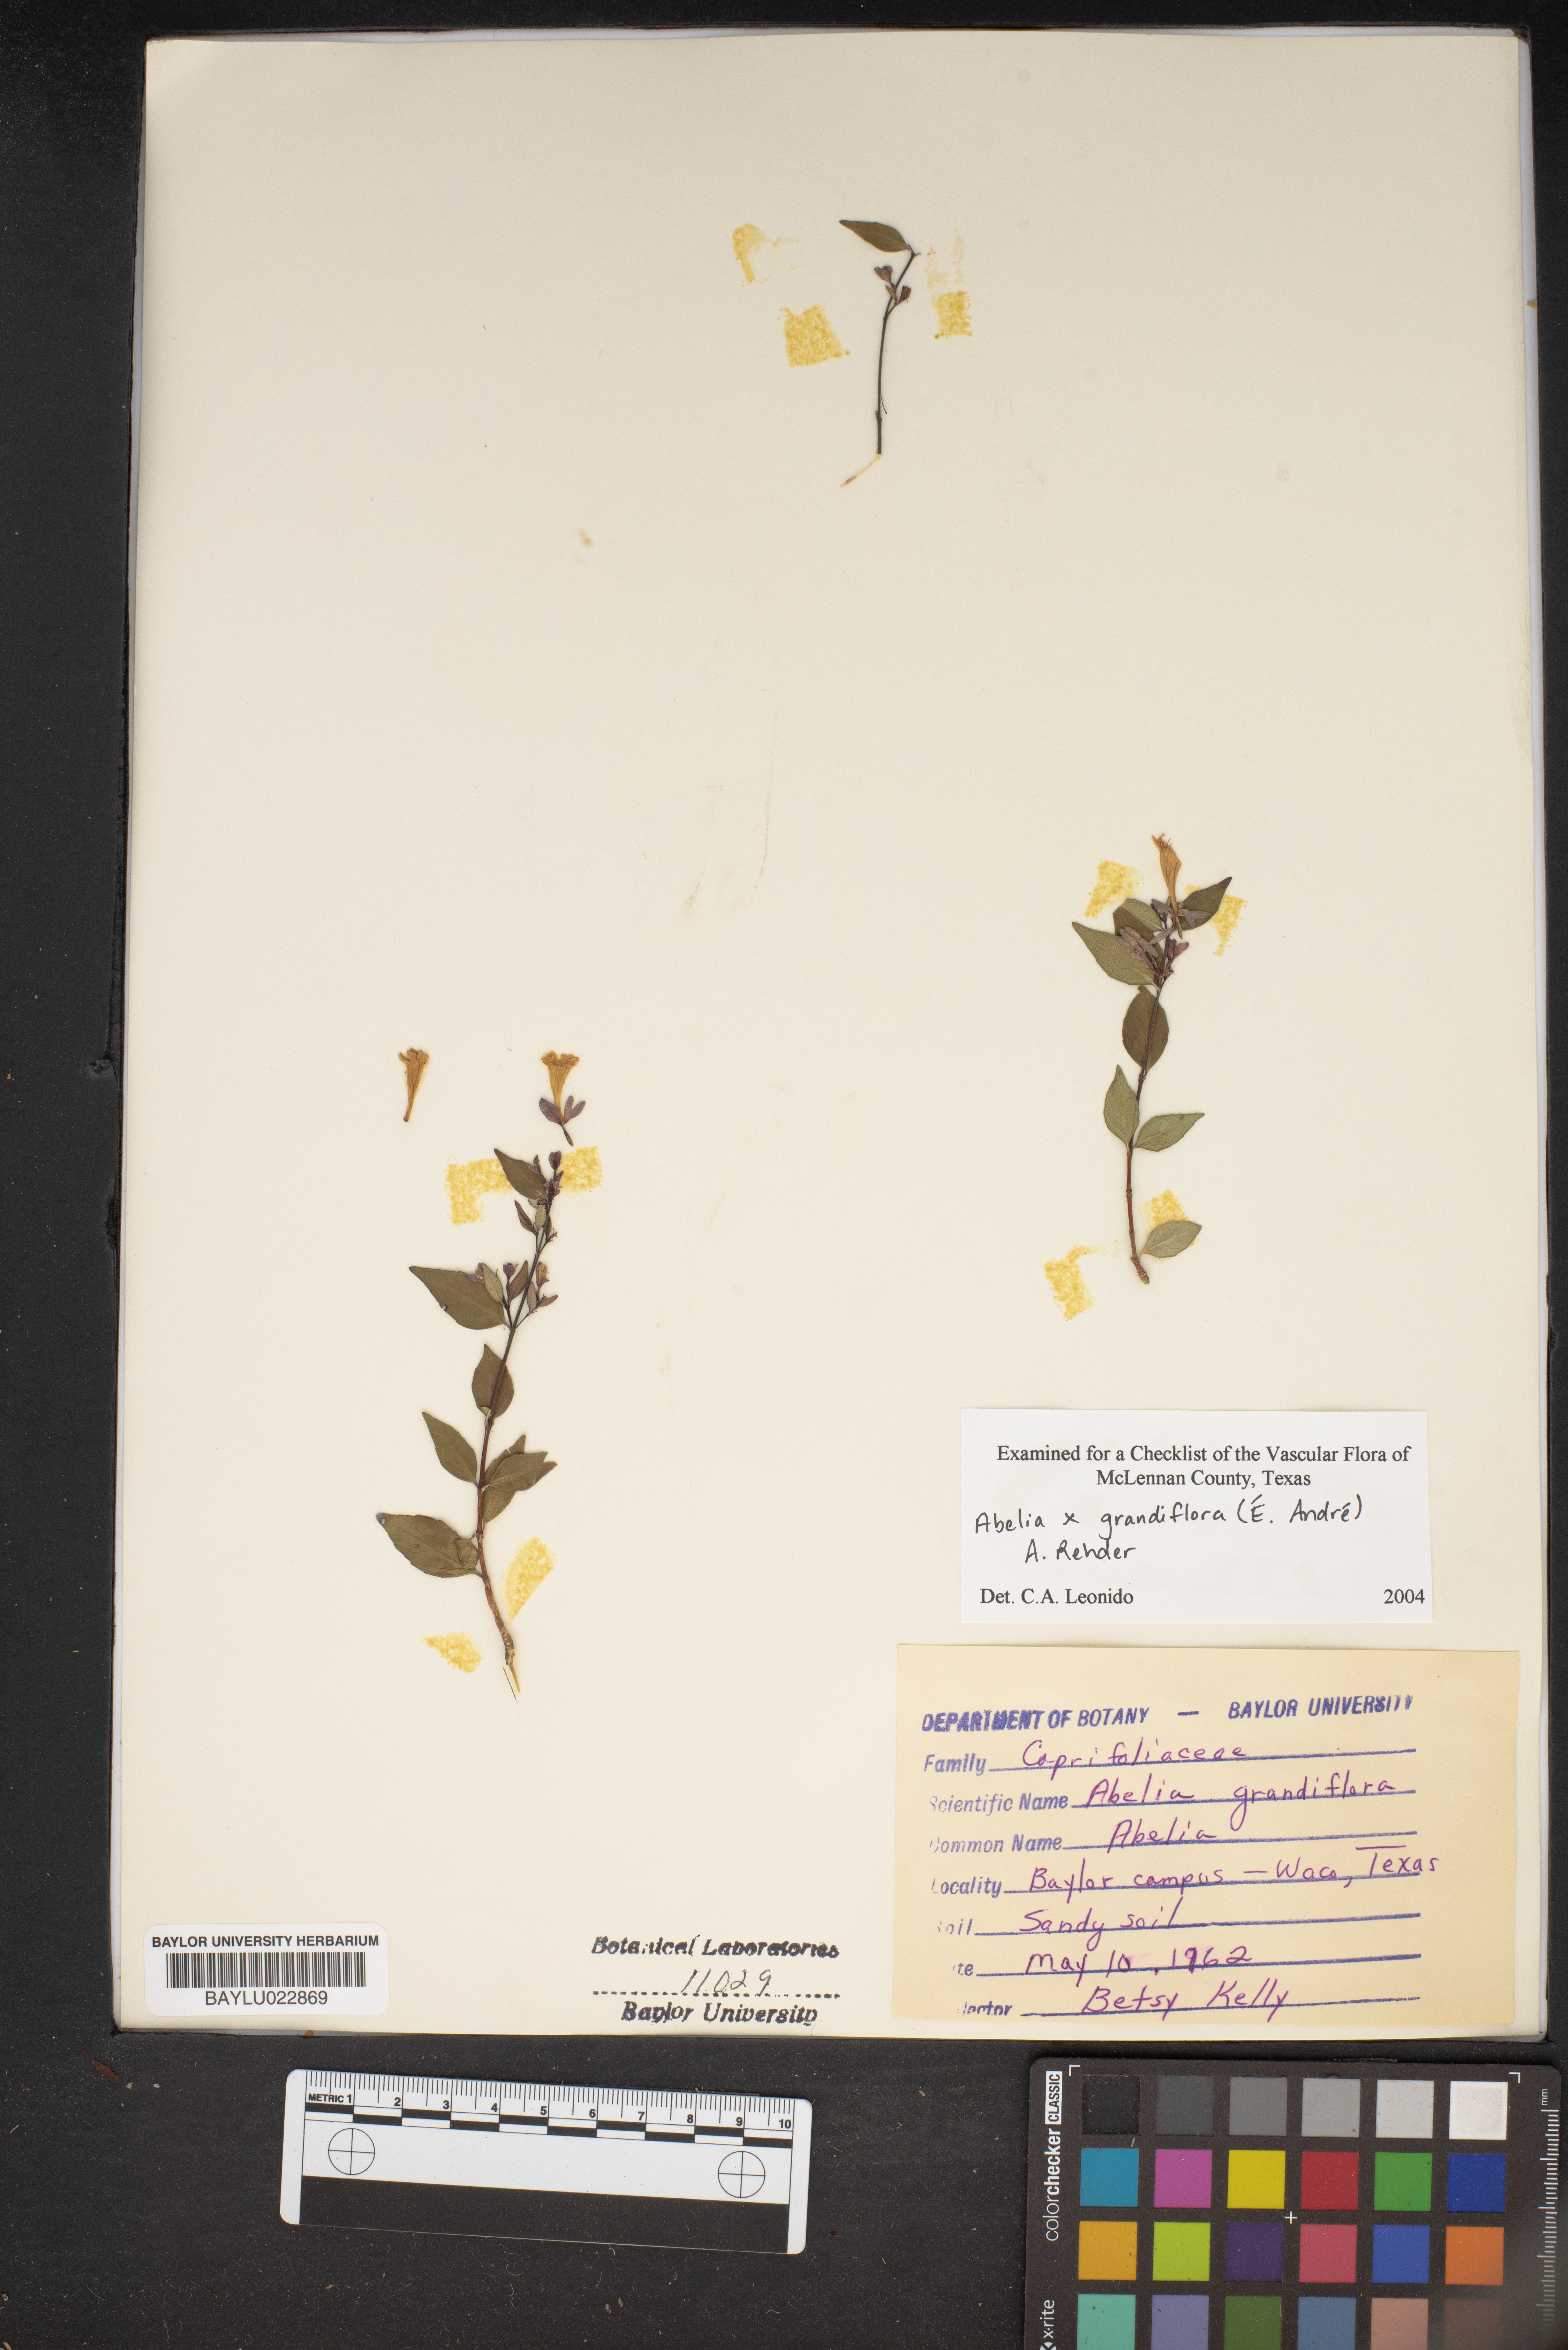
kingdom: Plantae
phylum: Tracheophyta
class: Magnoliopsida
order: Dipsacales
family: Caprifoliaceae
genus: Abelia
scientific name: Abelia chinensis
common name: Chinese abelia
